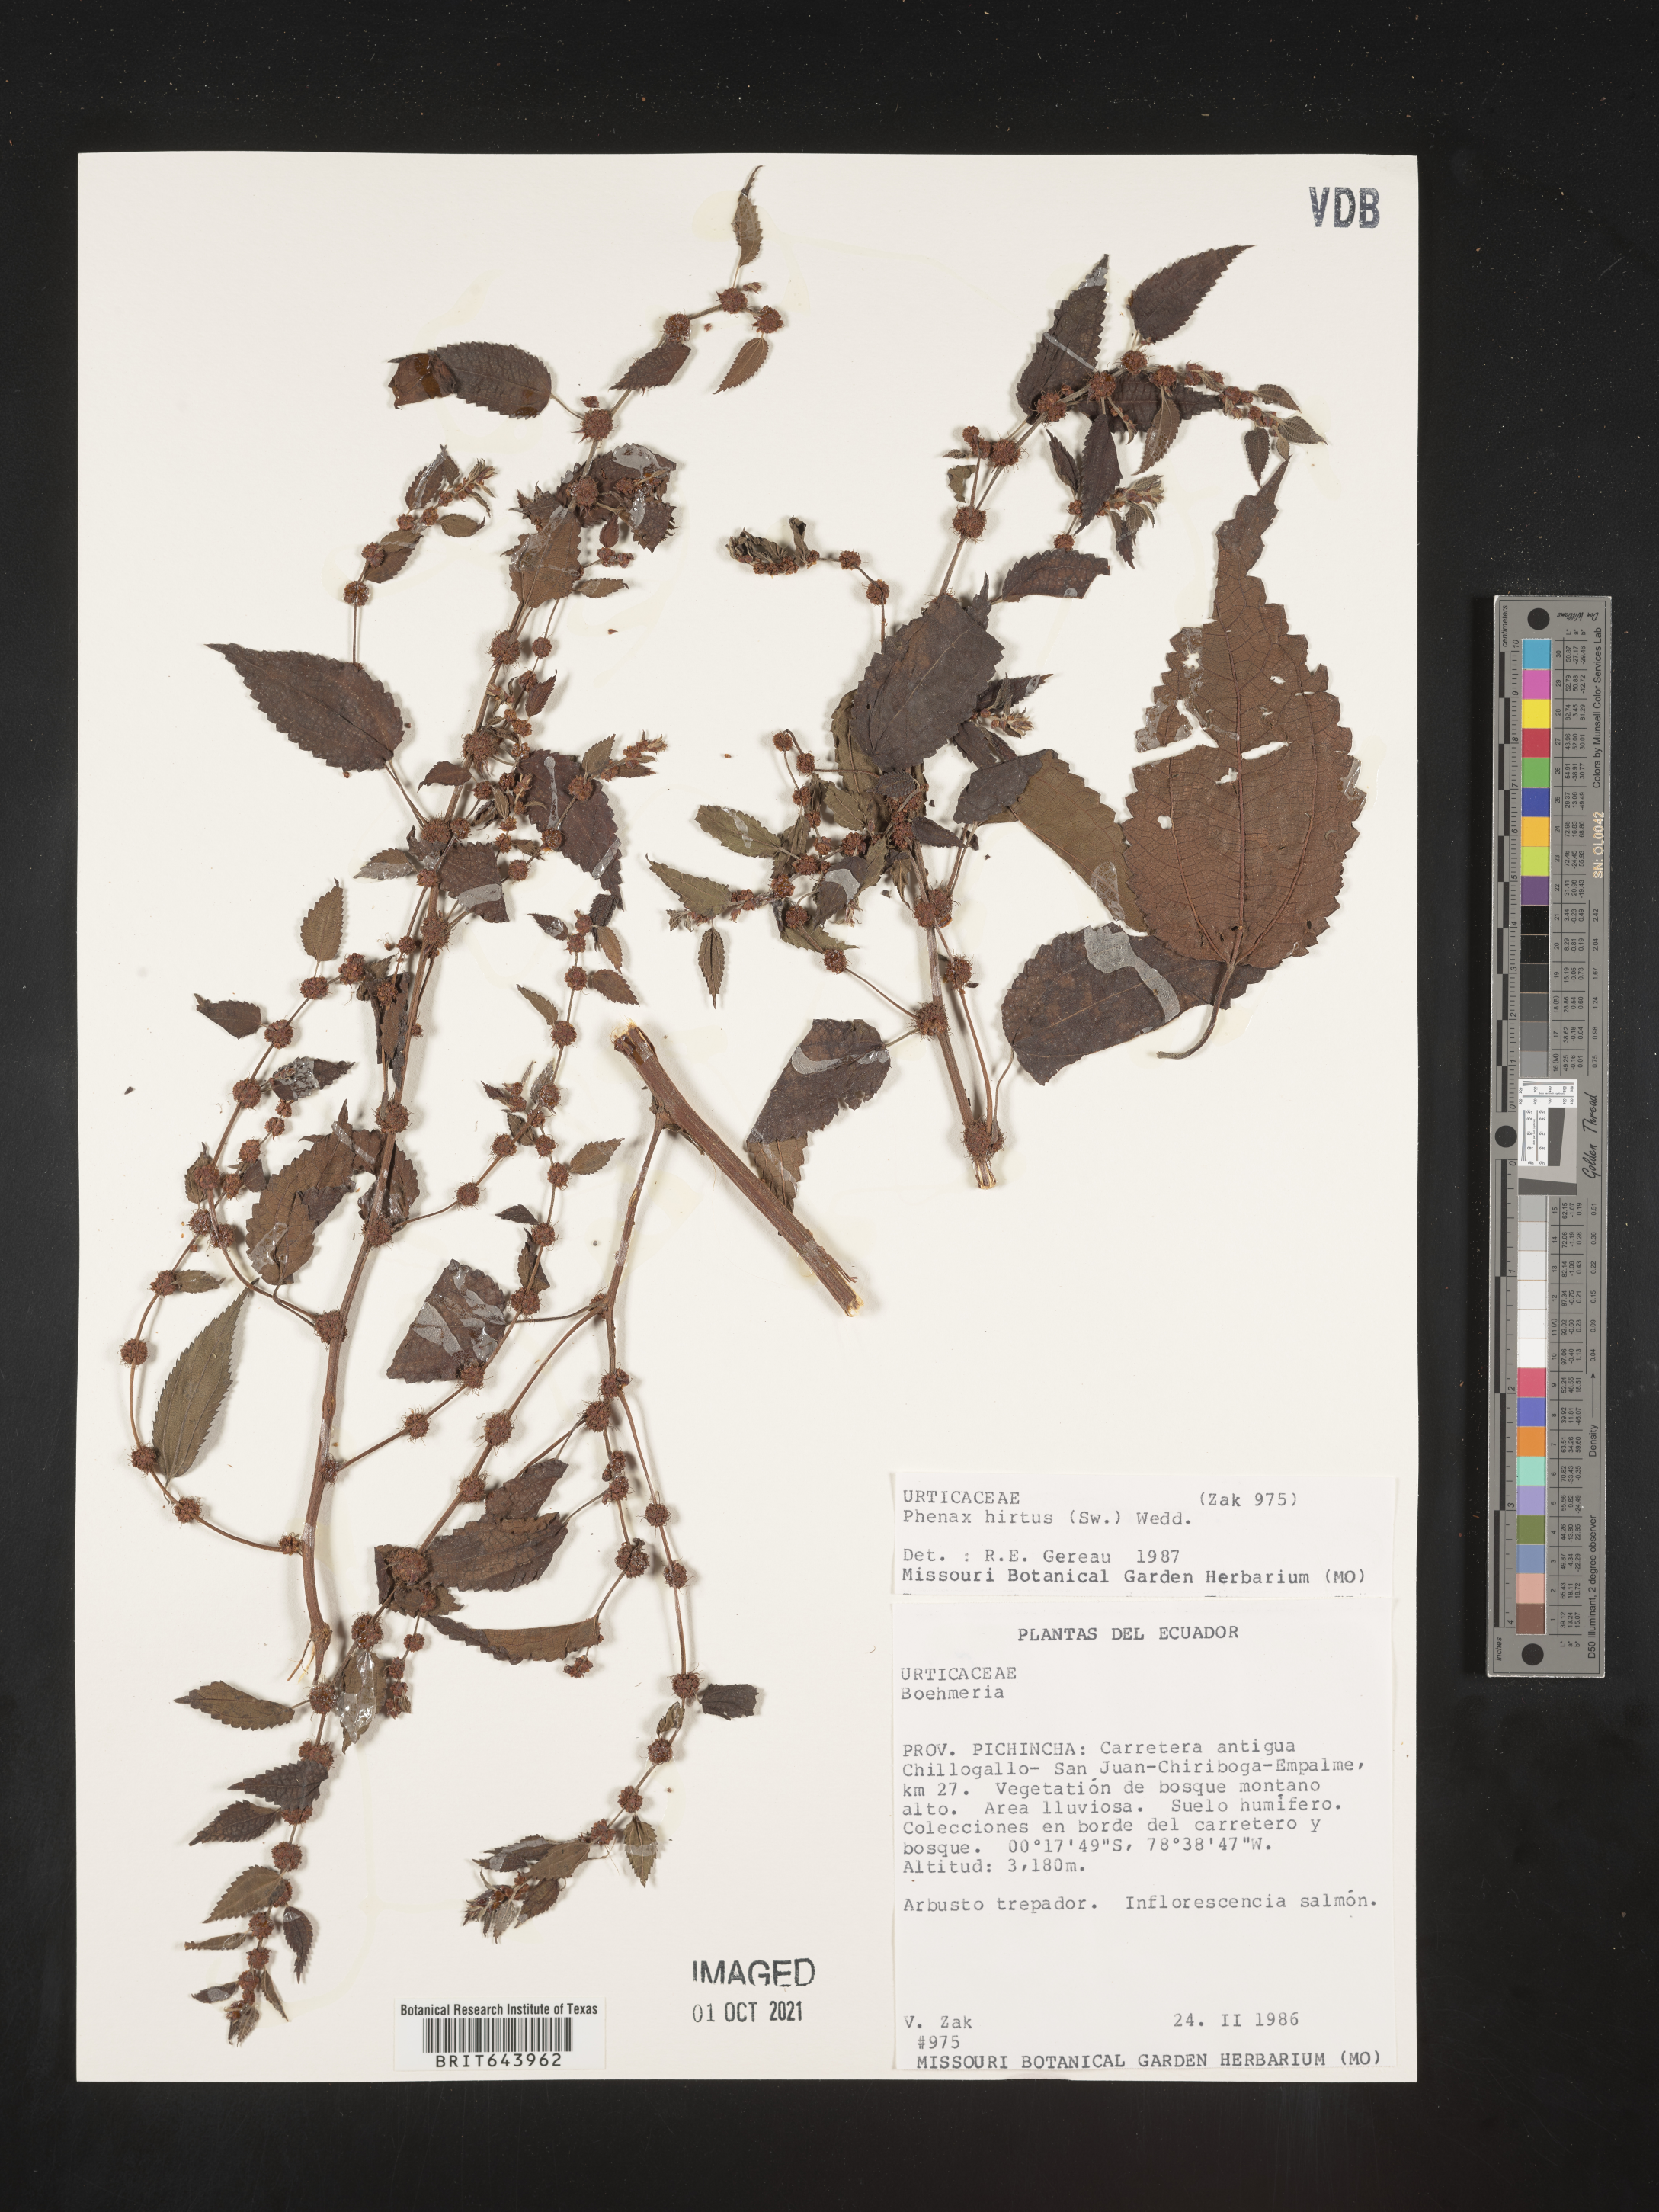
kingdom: Plantae
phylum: Tracheophyta
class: Magnoliopsida
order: Rosales
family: Urticaceae
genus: Phenax
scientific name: Phenax
